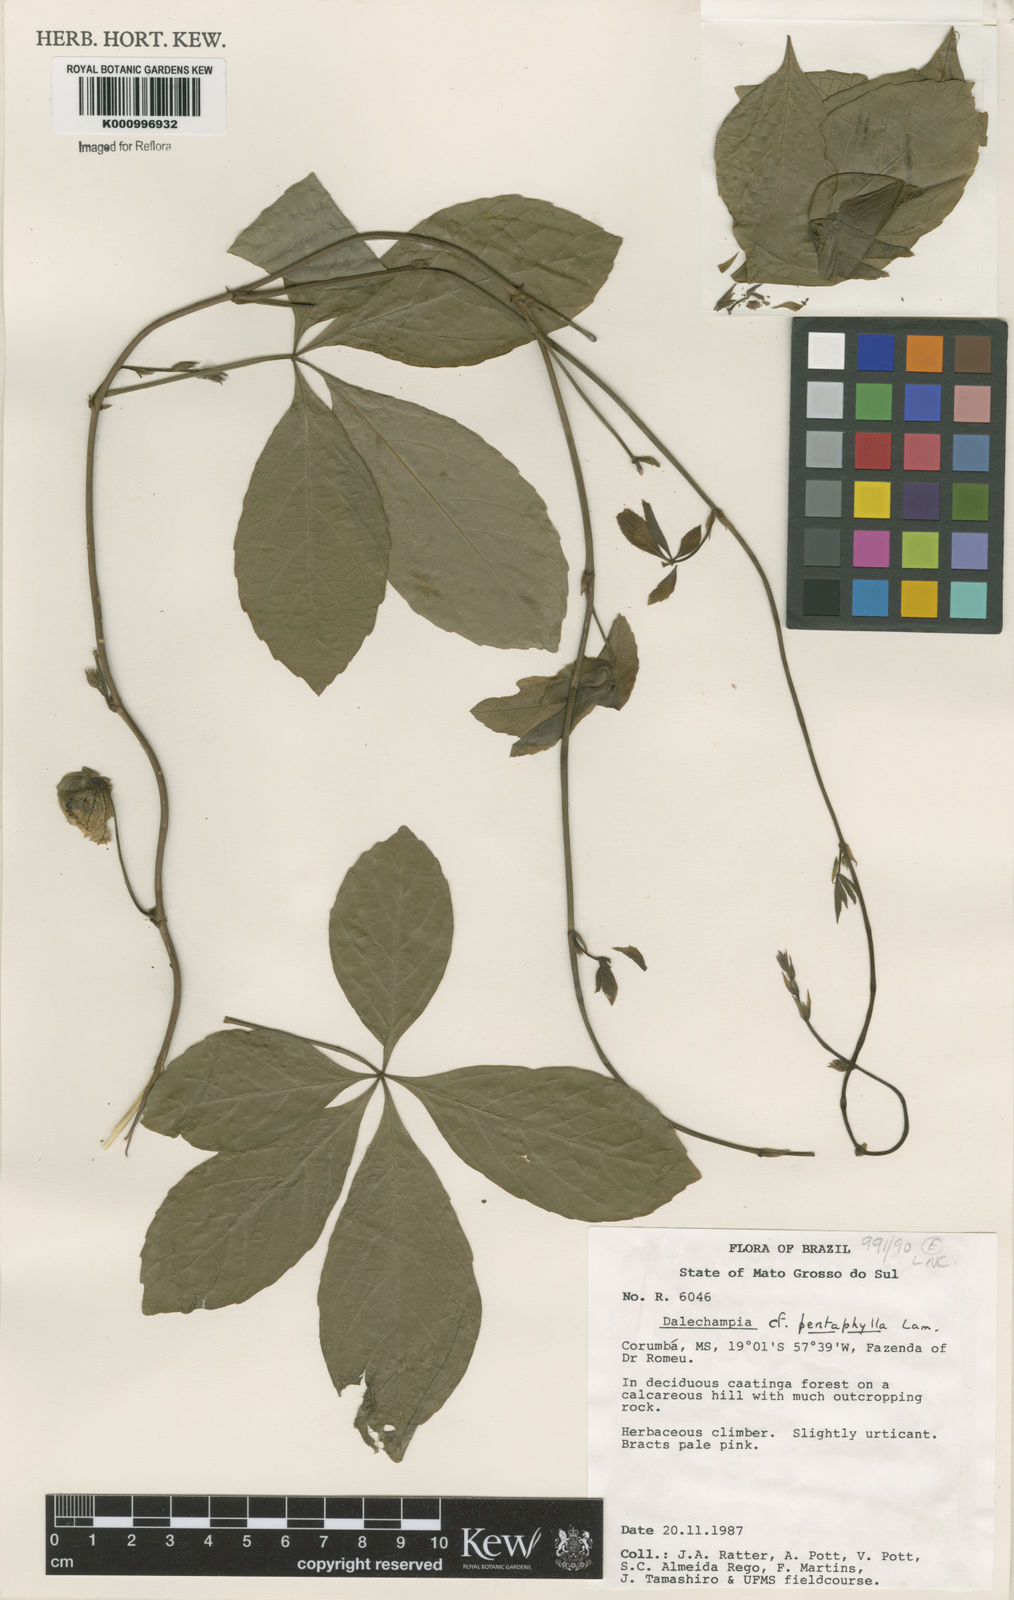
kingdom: Plantae
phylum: Tracheophyta
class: Magnoliopsida
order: Malpighiales
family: Euphorbiaceae
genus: Dalechampia
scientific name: Dalechampia pentaphylla
